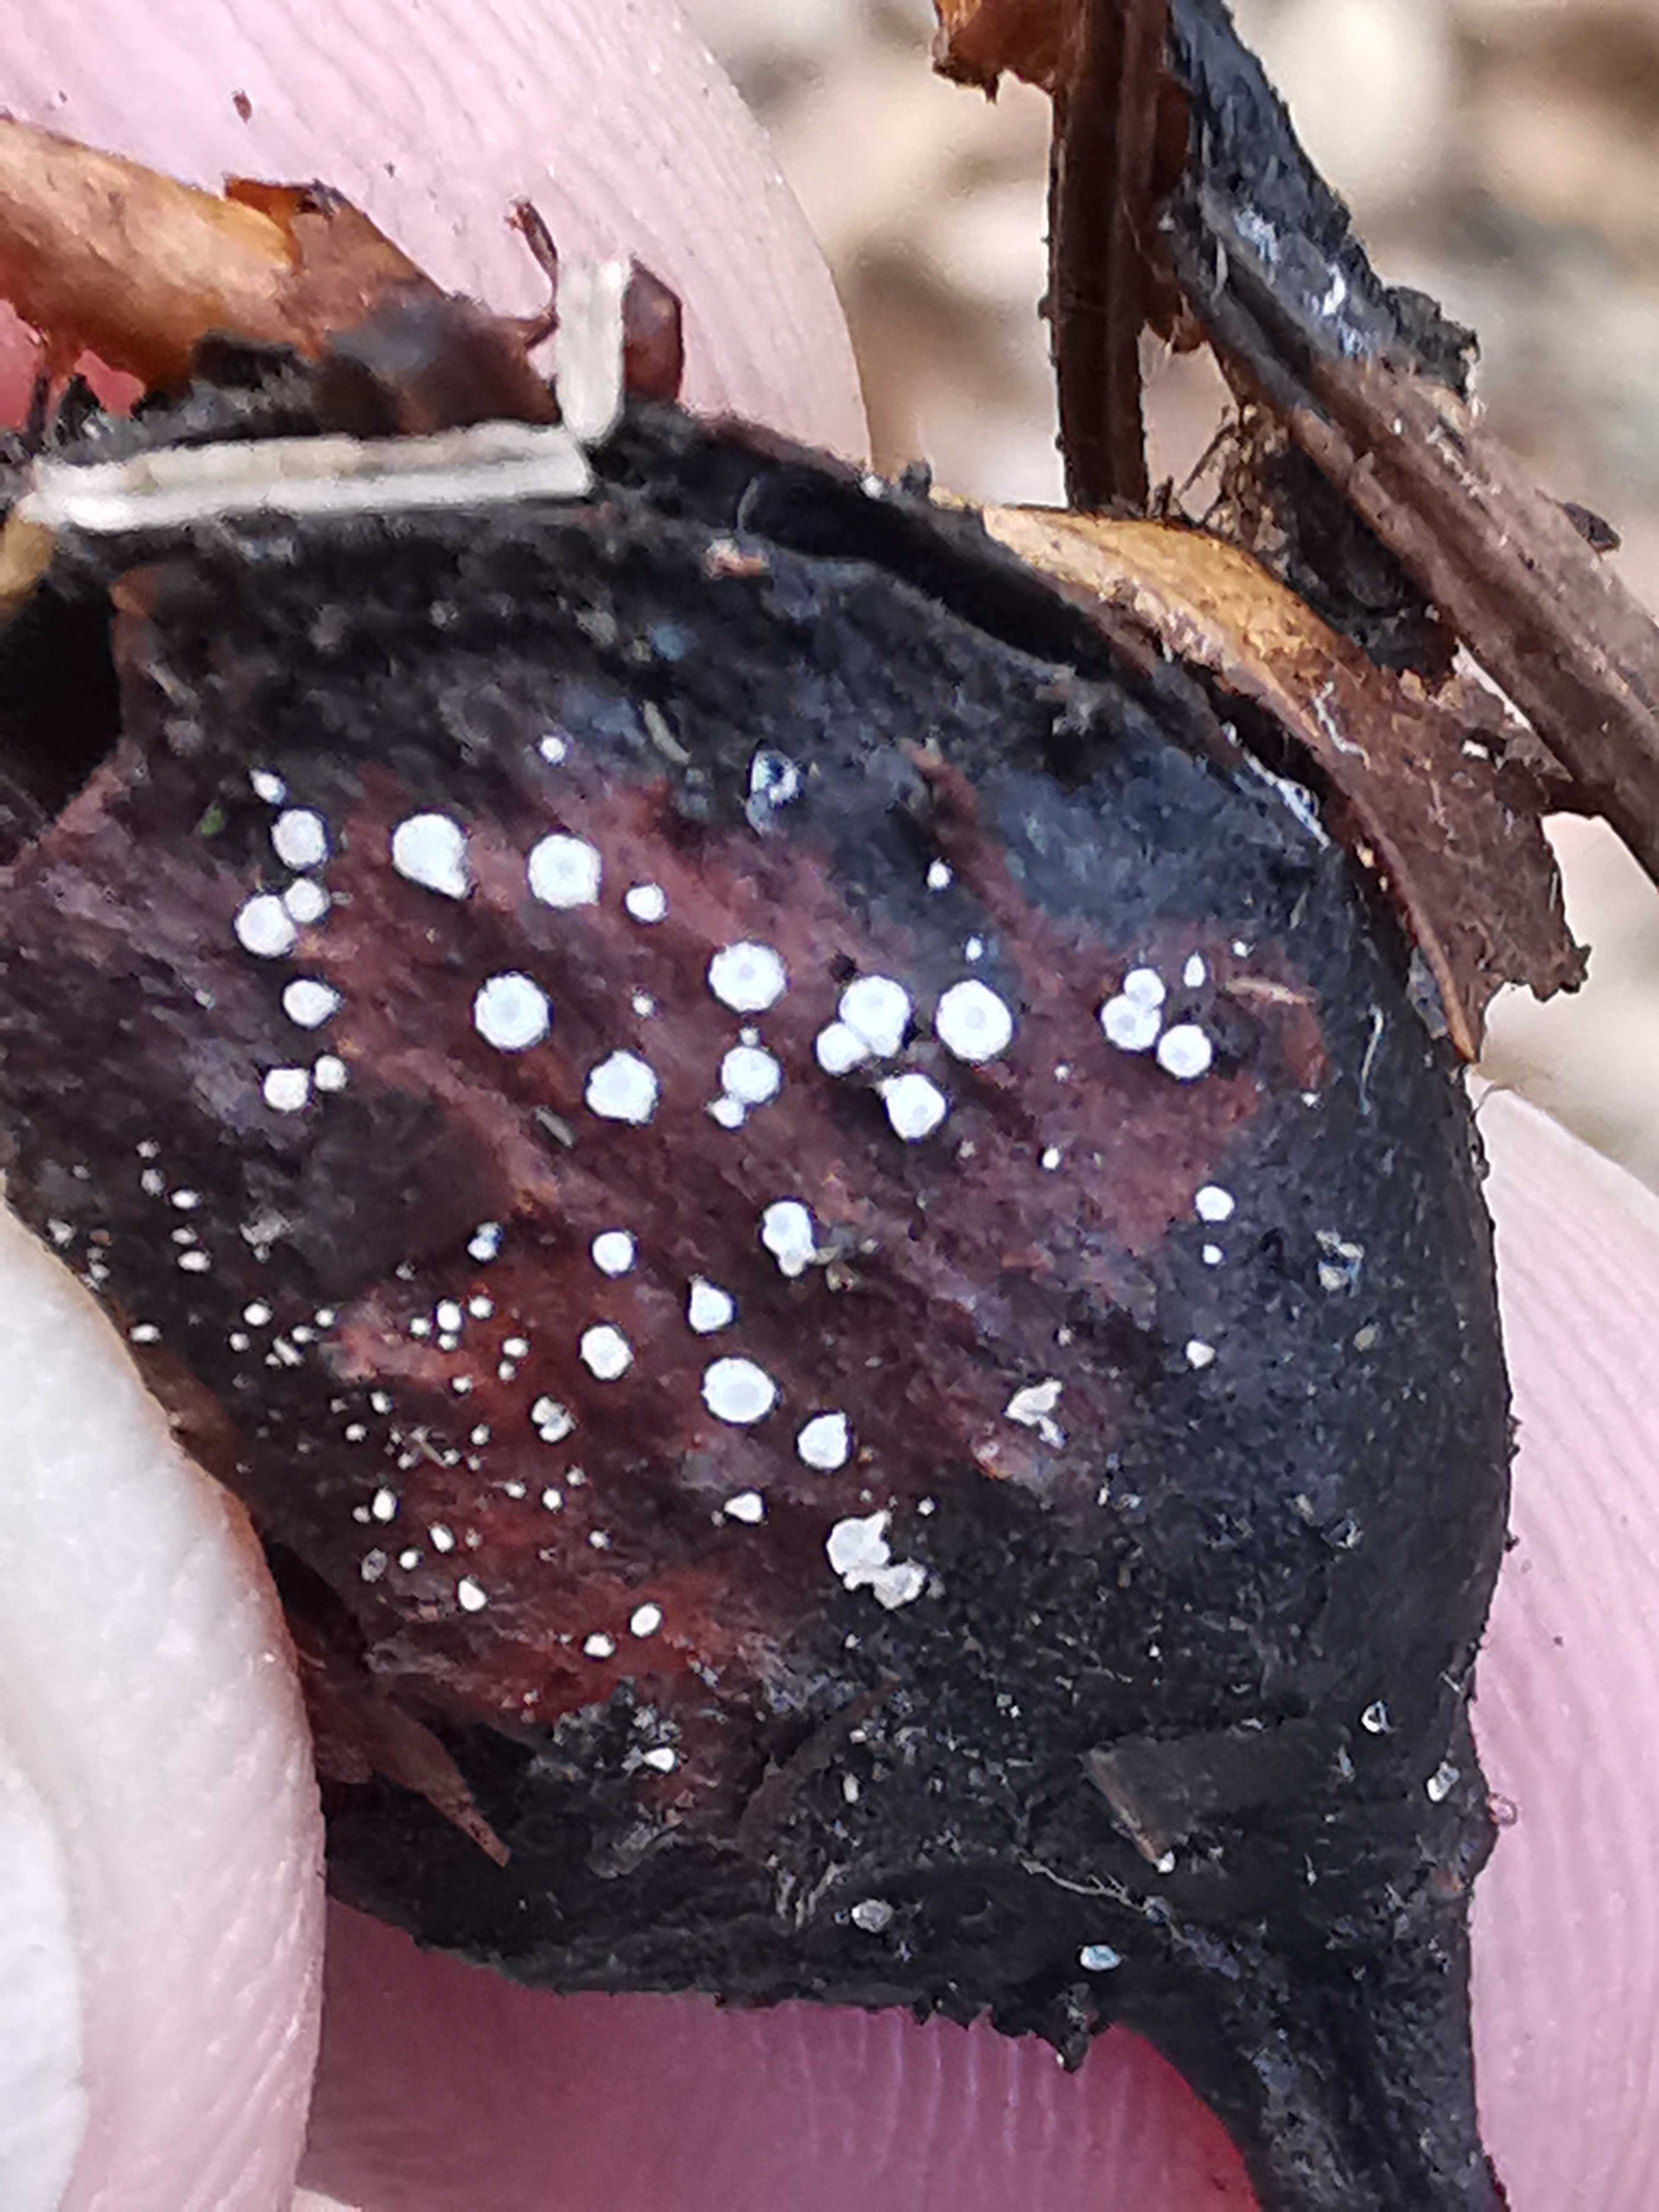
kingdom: Fungi
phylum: Ascomycota
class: Leotiomycetes
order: Helotiales
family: Lachnaceae
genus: Lachnum
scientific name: Lachnum virgineum
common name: jomfru-frynseskive
